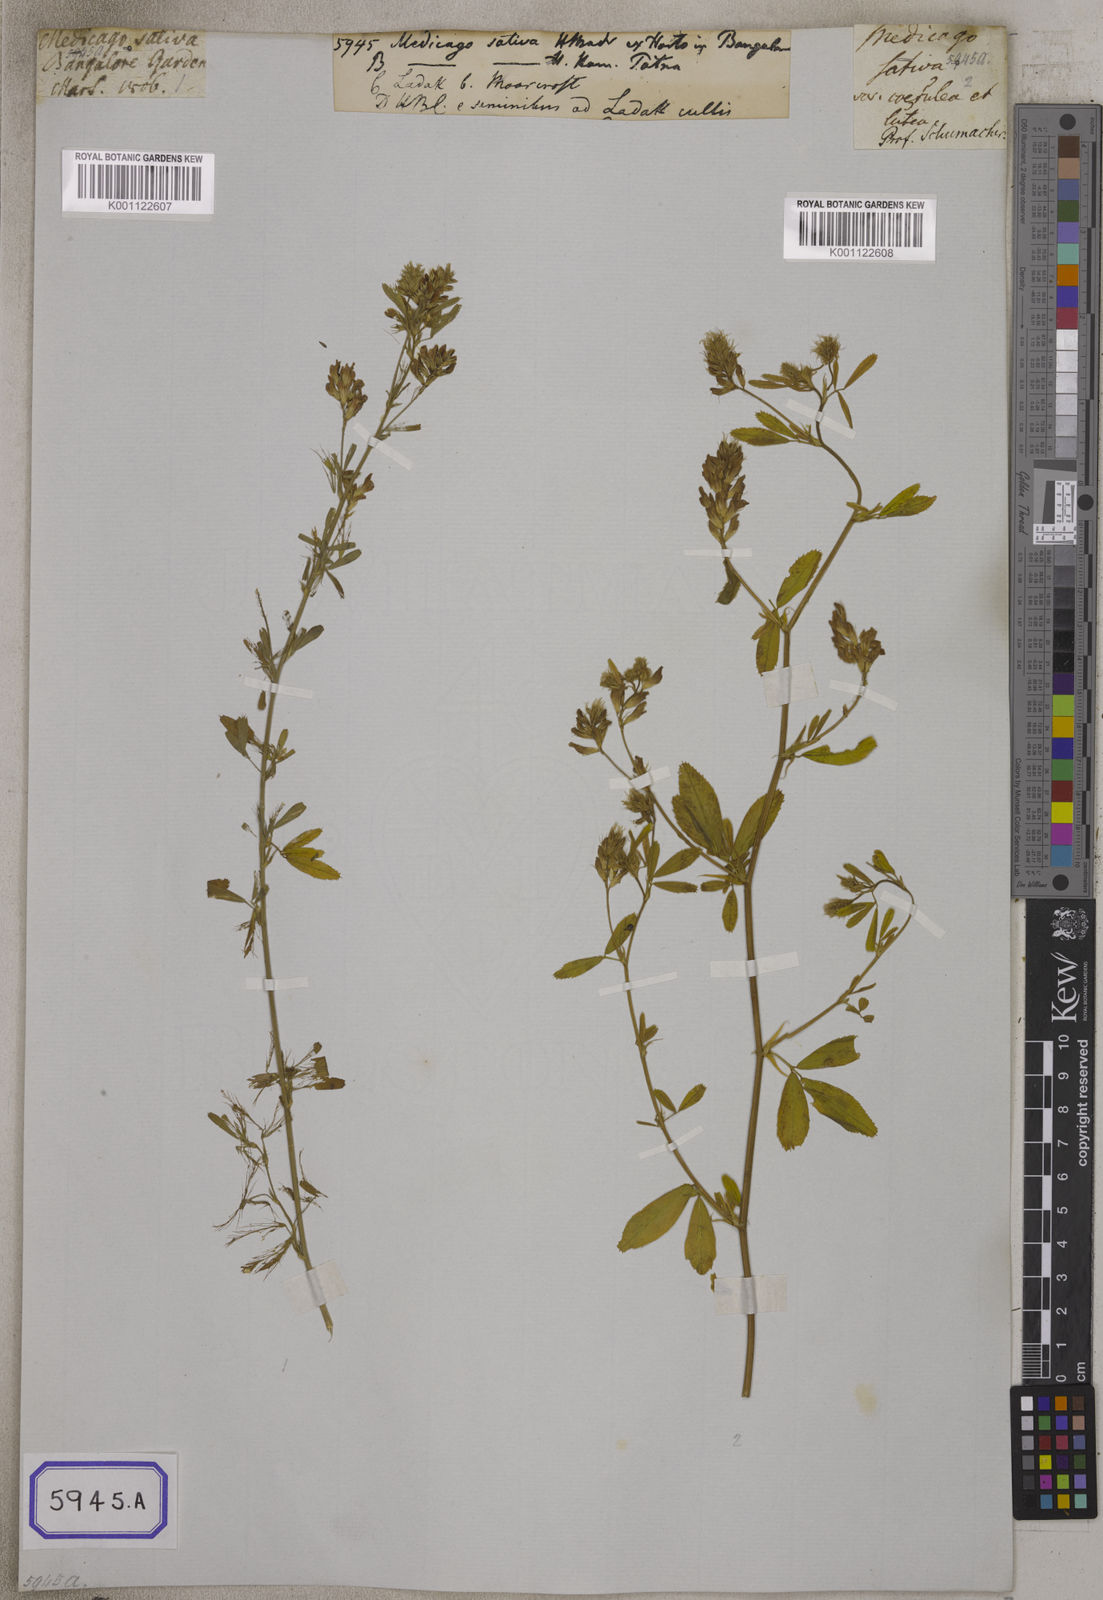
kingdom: Plantae
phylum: Tracheophyta
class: Magnoliopsida
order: Fabales
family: Fabaceae
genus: Medicago
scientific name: Medicago sativa
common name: Alfalfa
